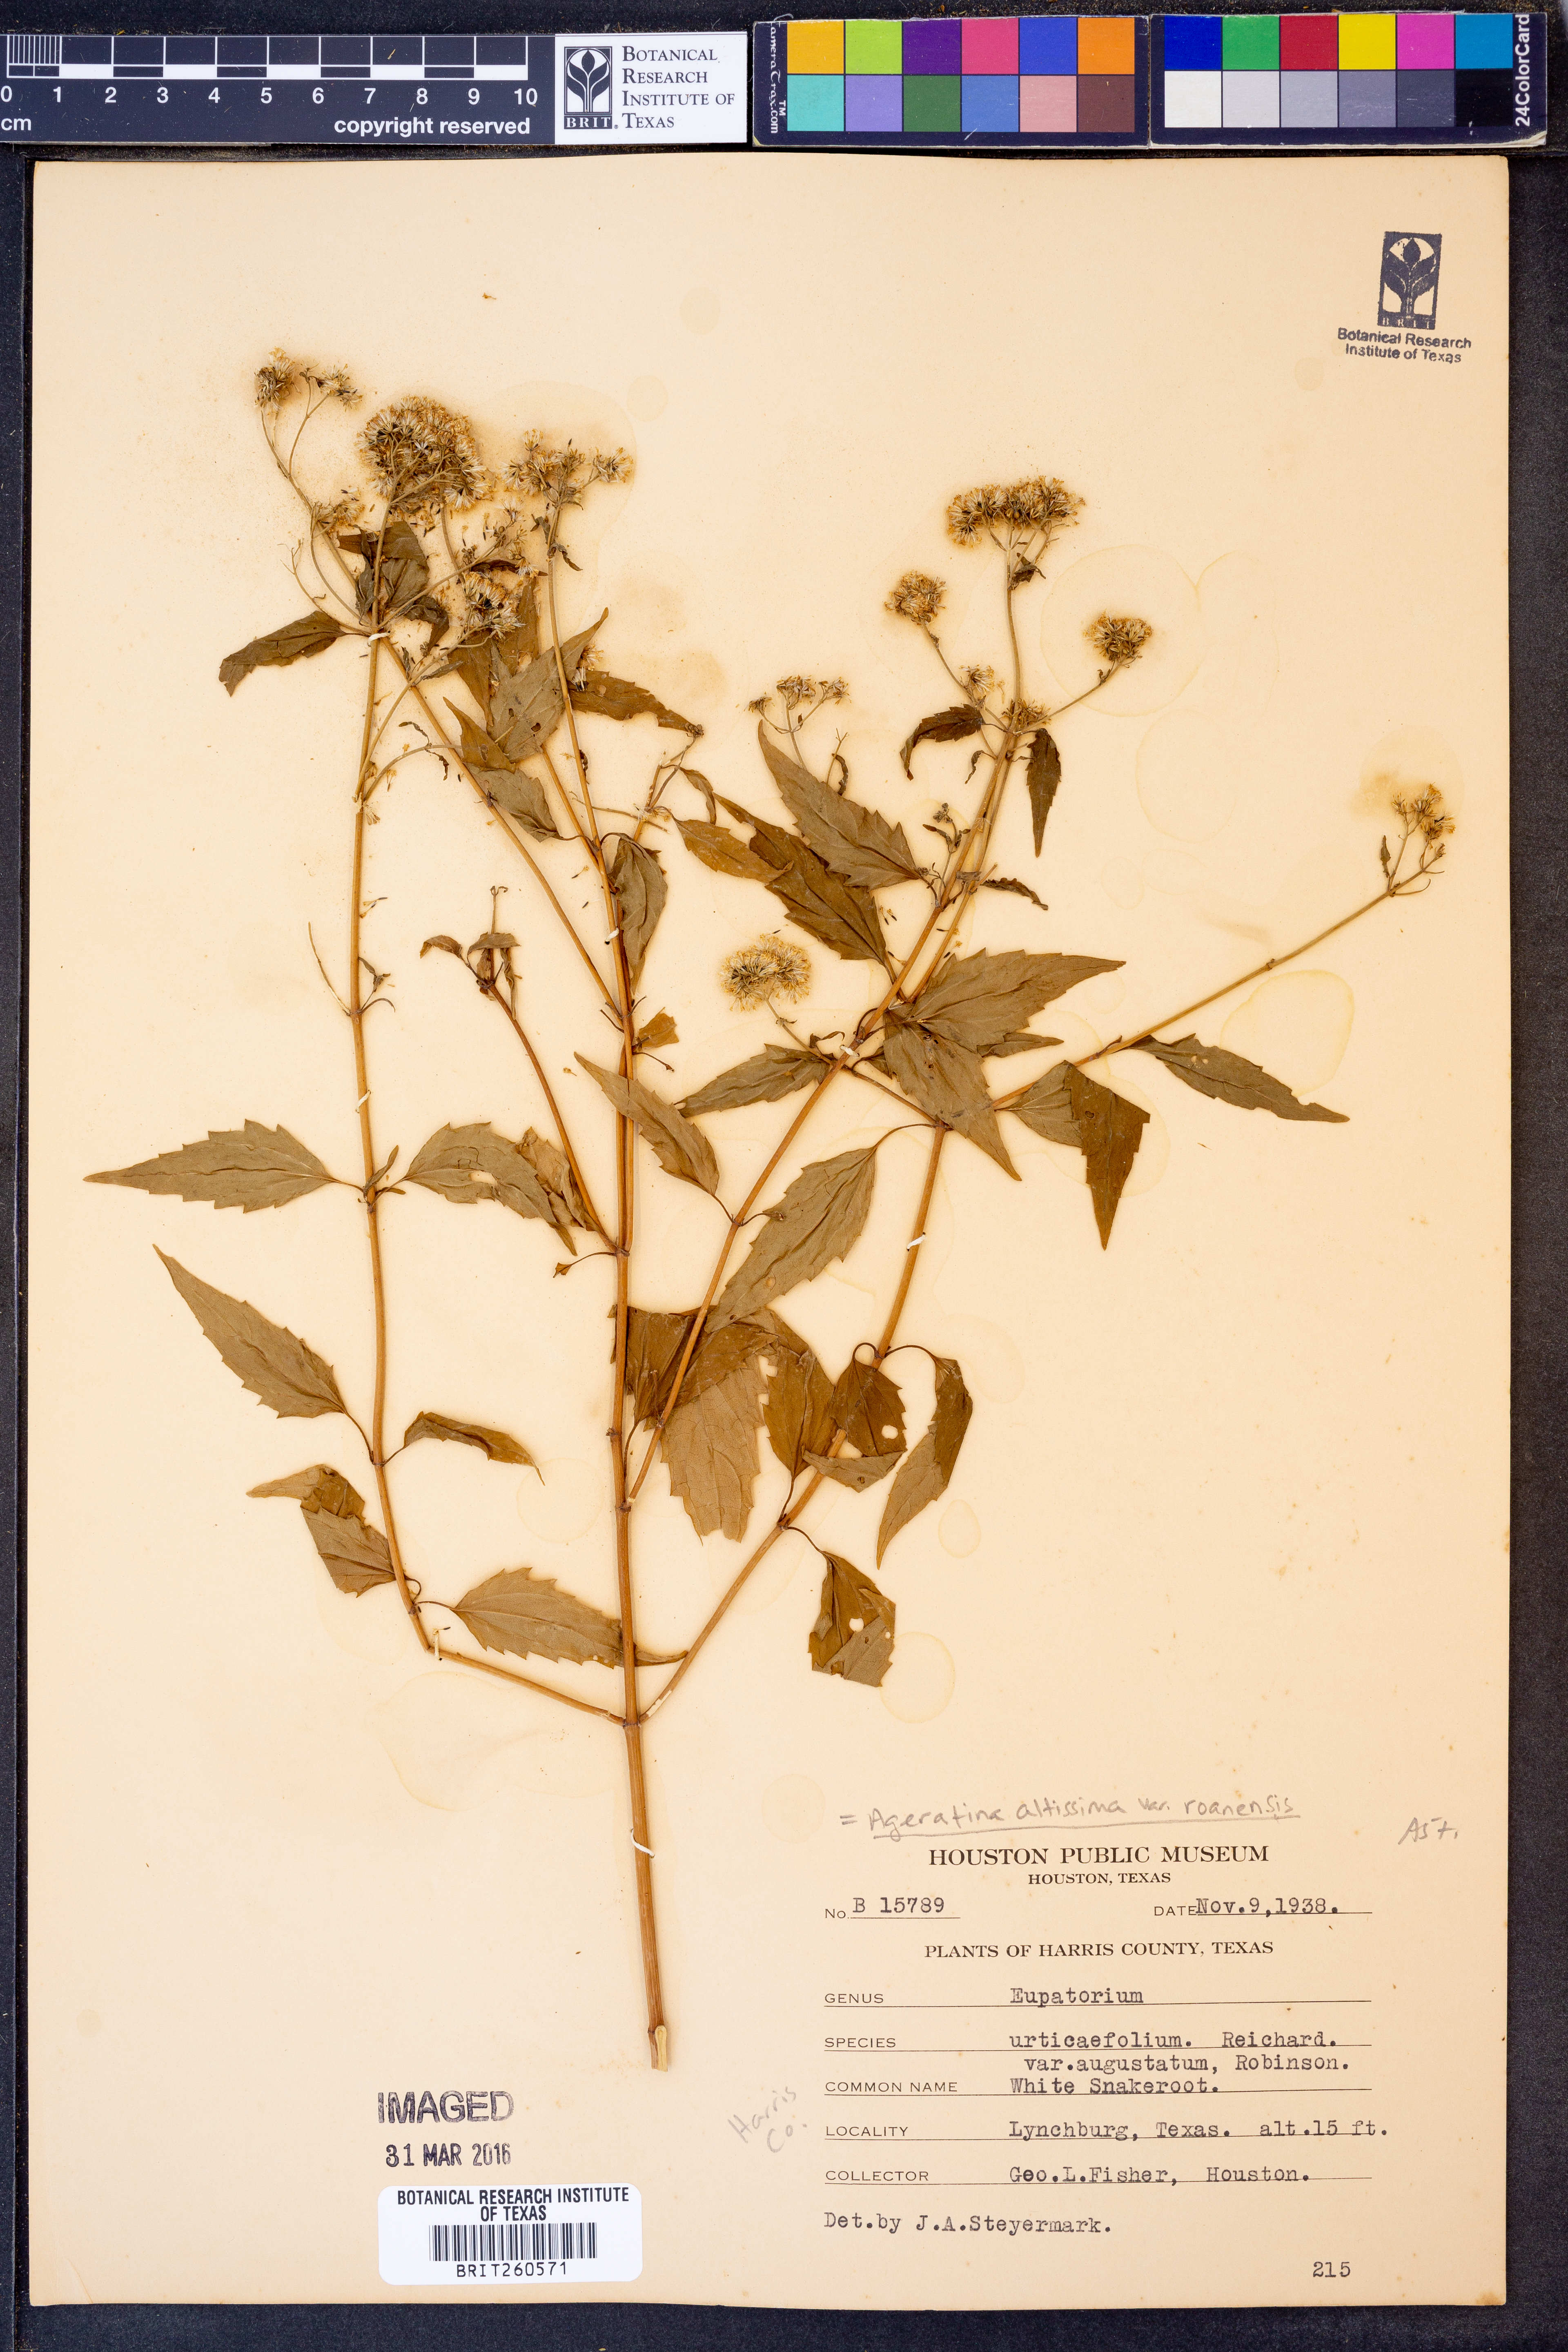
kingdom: Plantae
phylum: Tracheophyta
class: Magnoliopsida
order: Asterales
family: Asteraceae
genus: Ageratina
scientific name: Ageratina roanensis
